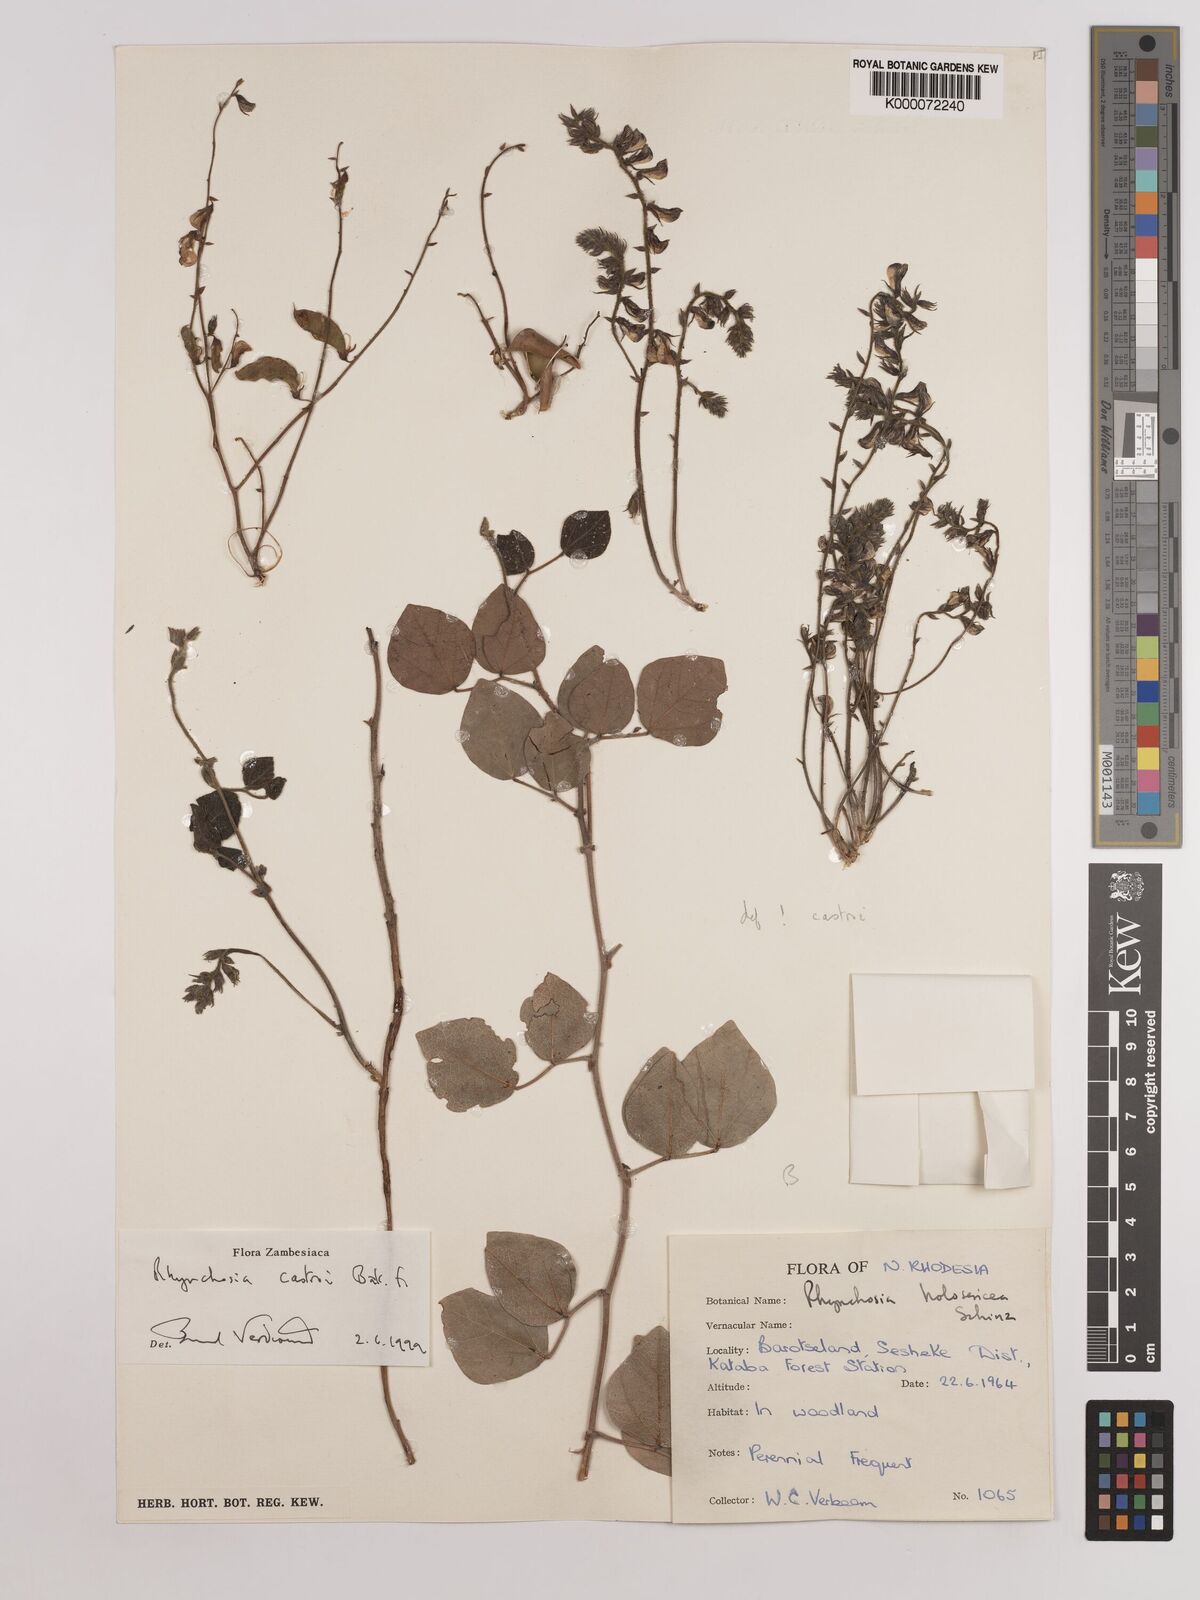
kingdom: Plantae
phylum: Tracheophyta
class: Magnoliopsida
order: Fabales
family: Fabaceae
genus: Rhynchosia
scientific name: Rhynchosia castroi
